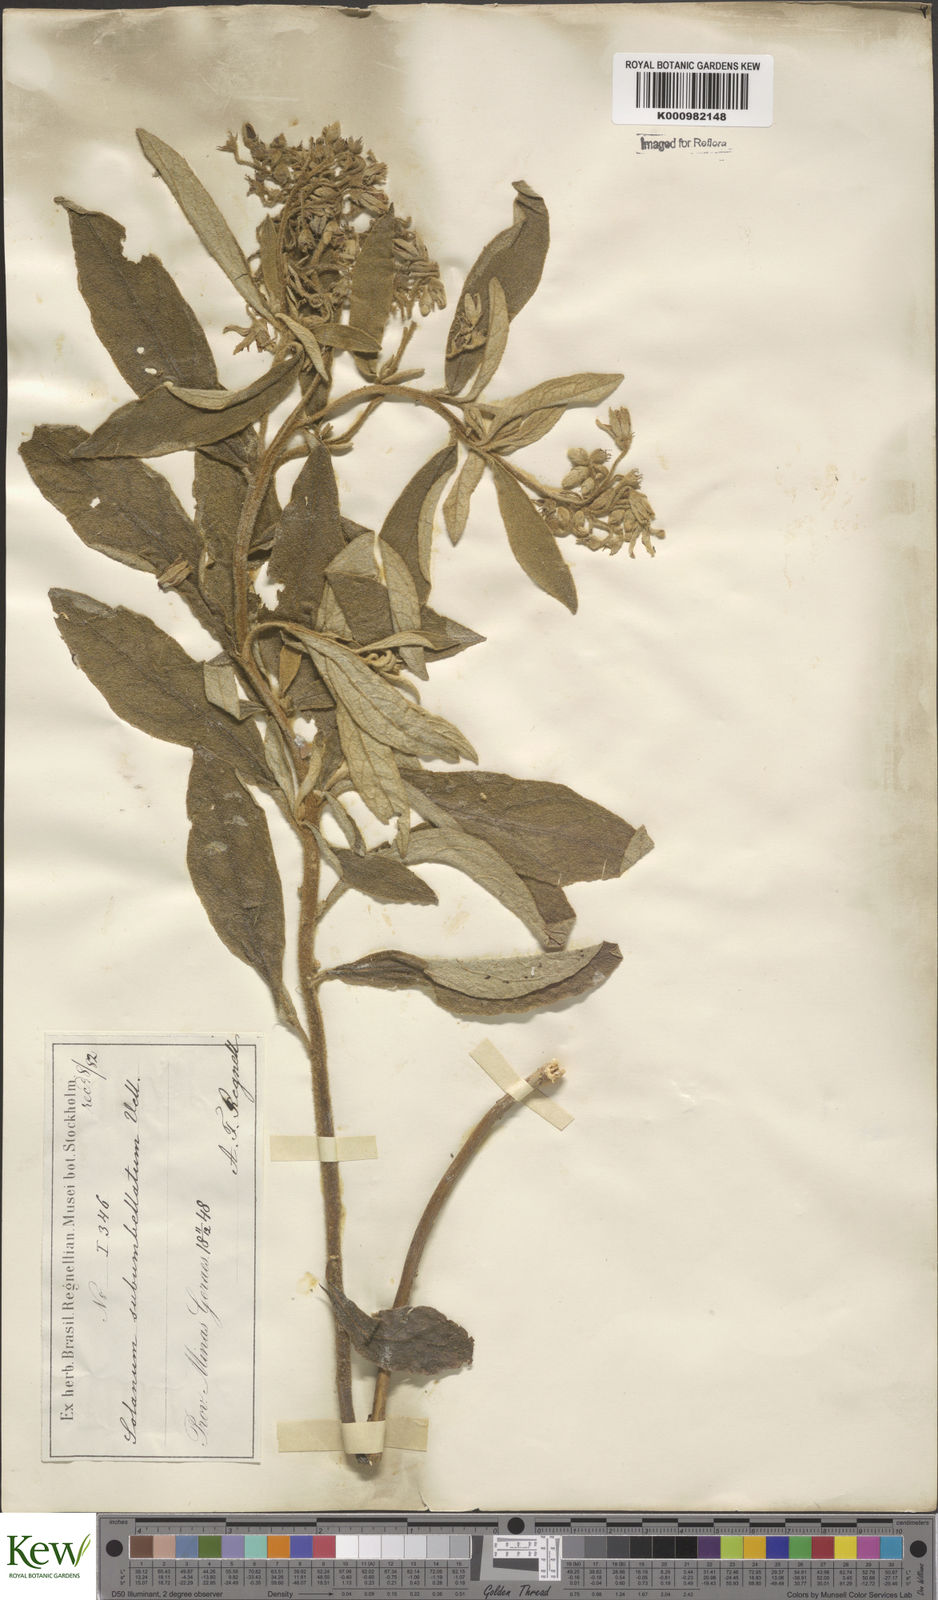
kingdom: Plantae
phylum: Tracheophyta
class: Magnoliopsida
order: Solanales
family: Solanaceae
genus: Solanum
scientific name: Solanum subumbellatum
